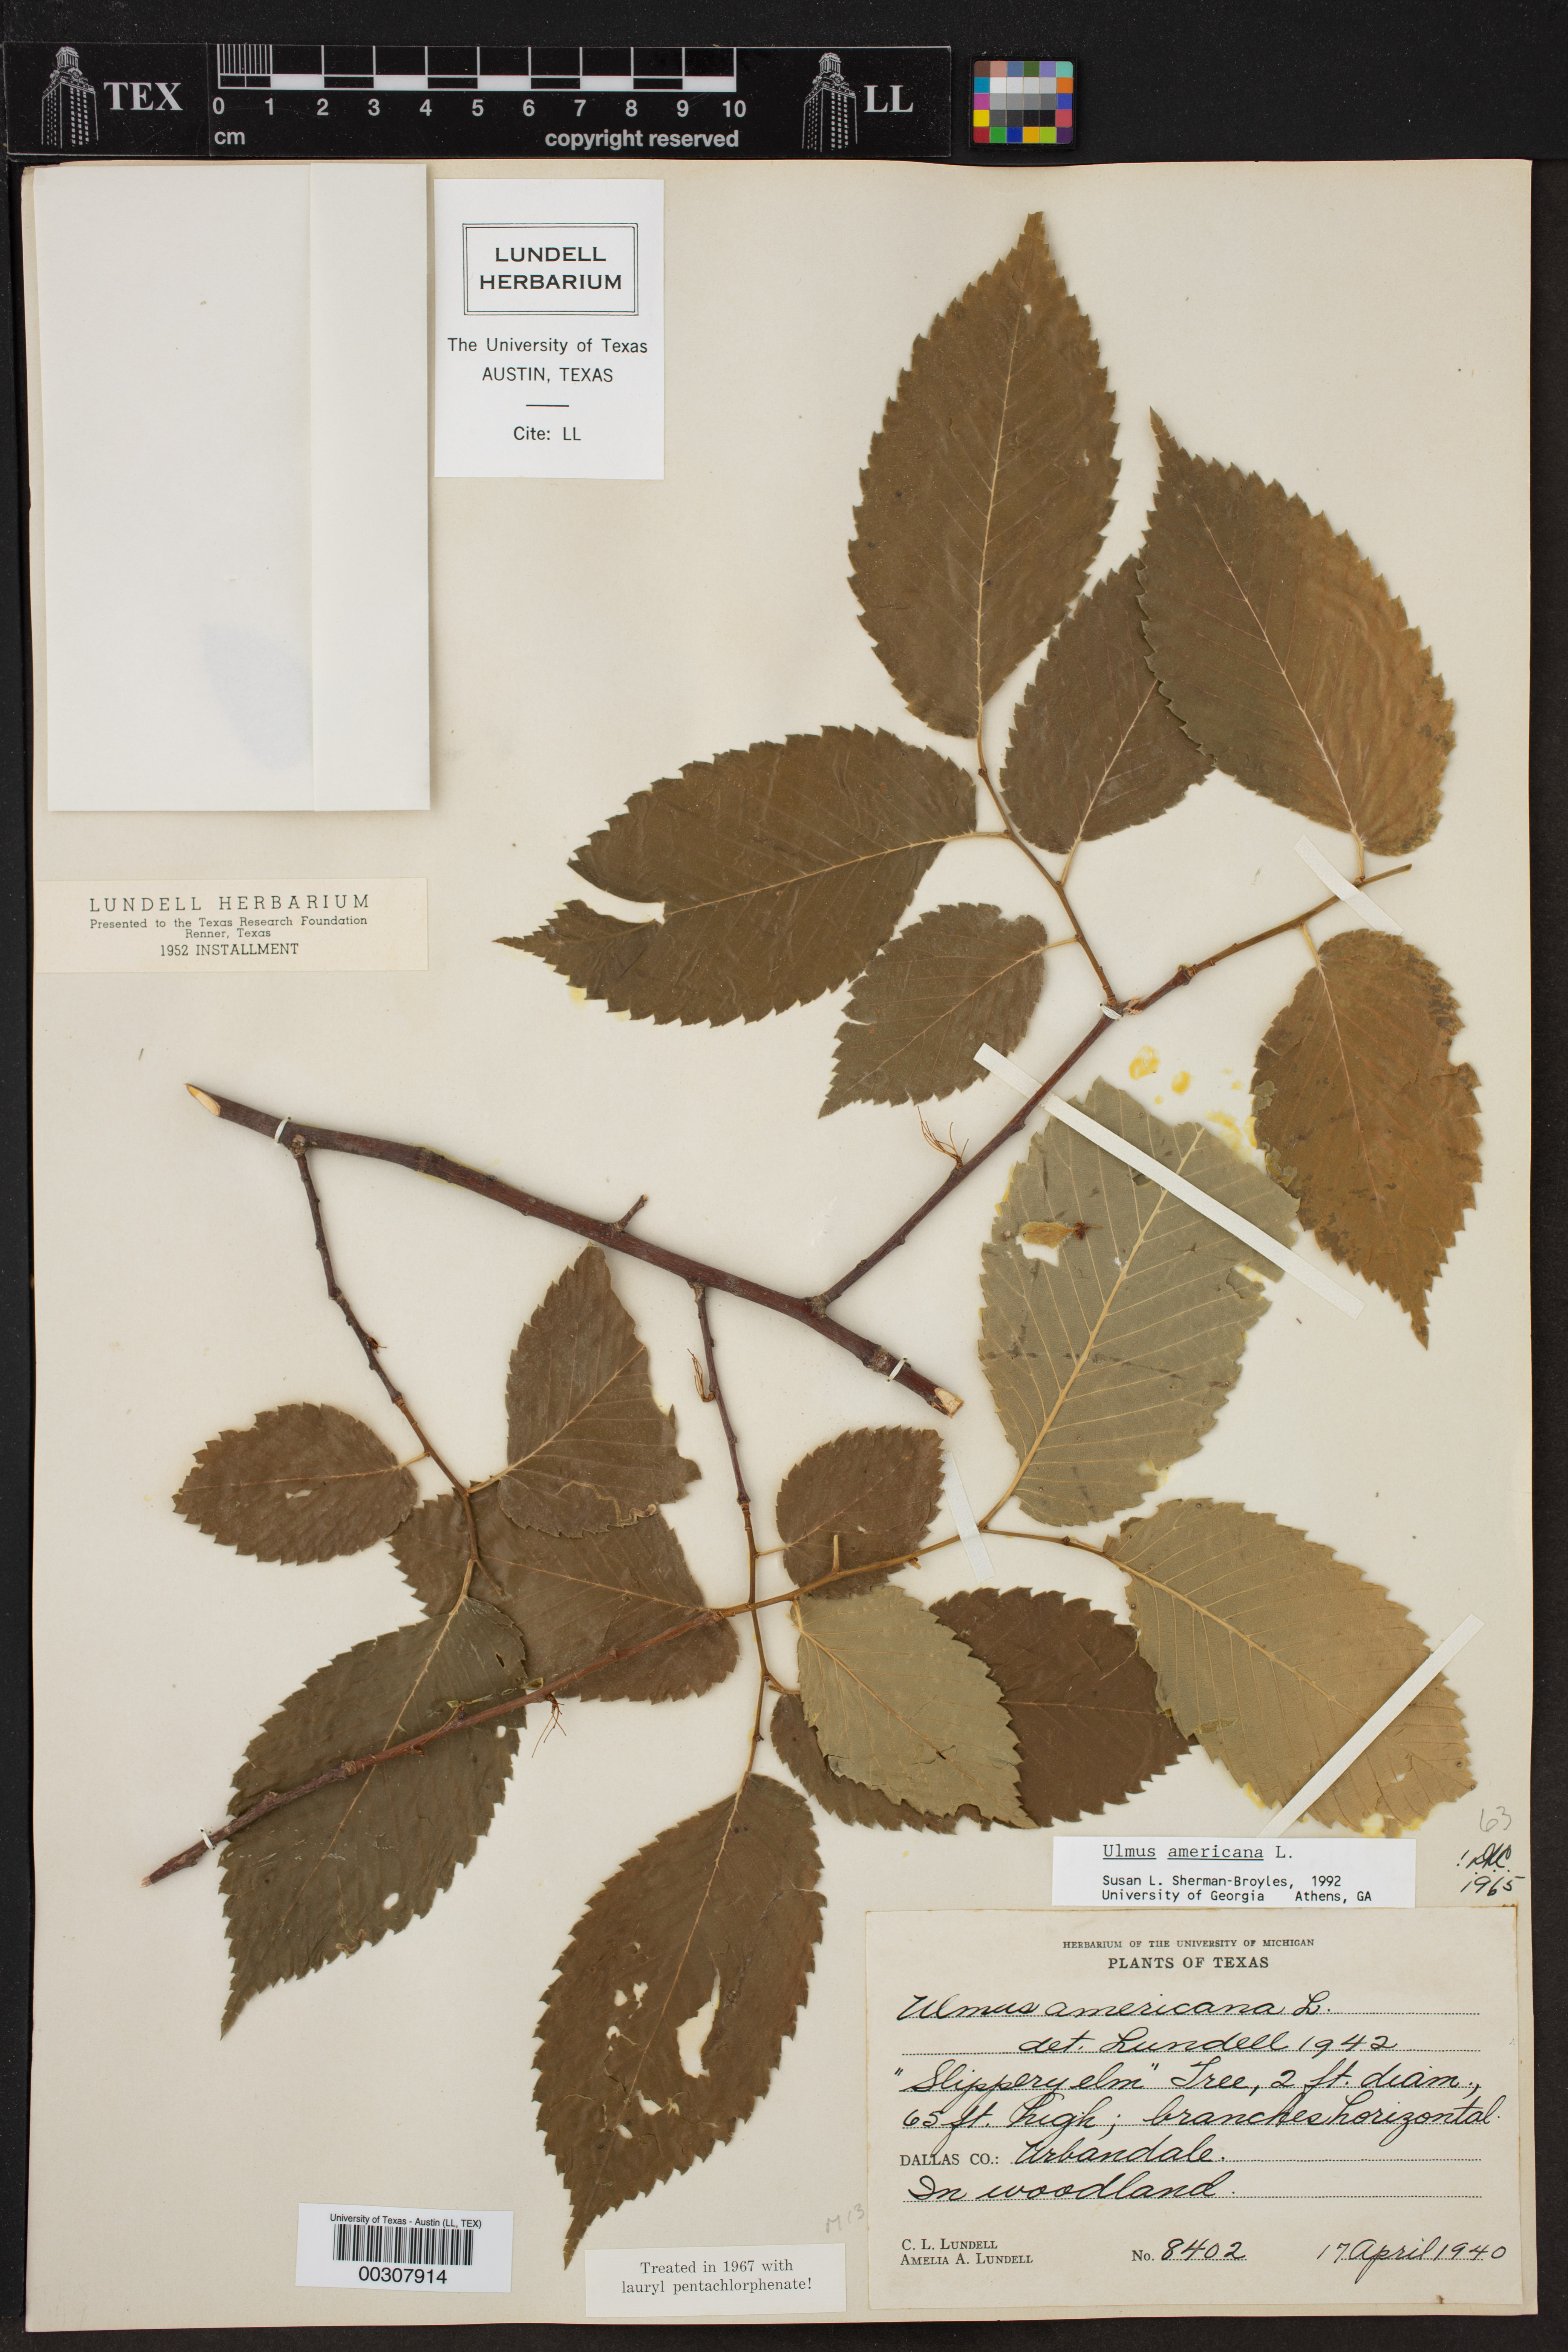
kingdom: Plantae
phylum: Tracheophyta
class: Magnoliopsida
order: Rosales
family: Ulmaceae
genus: Ulmus
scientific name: Ulmus americana
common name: American elm
